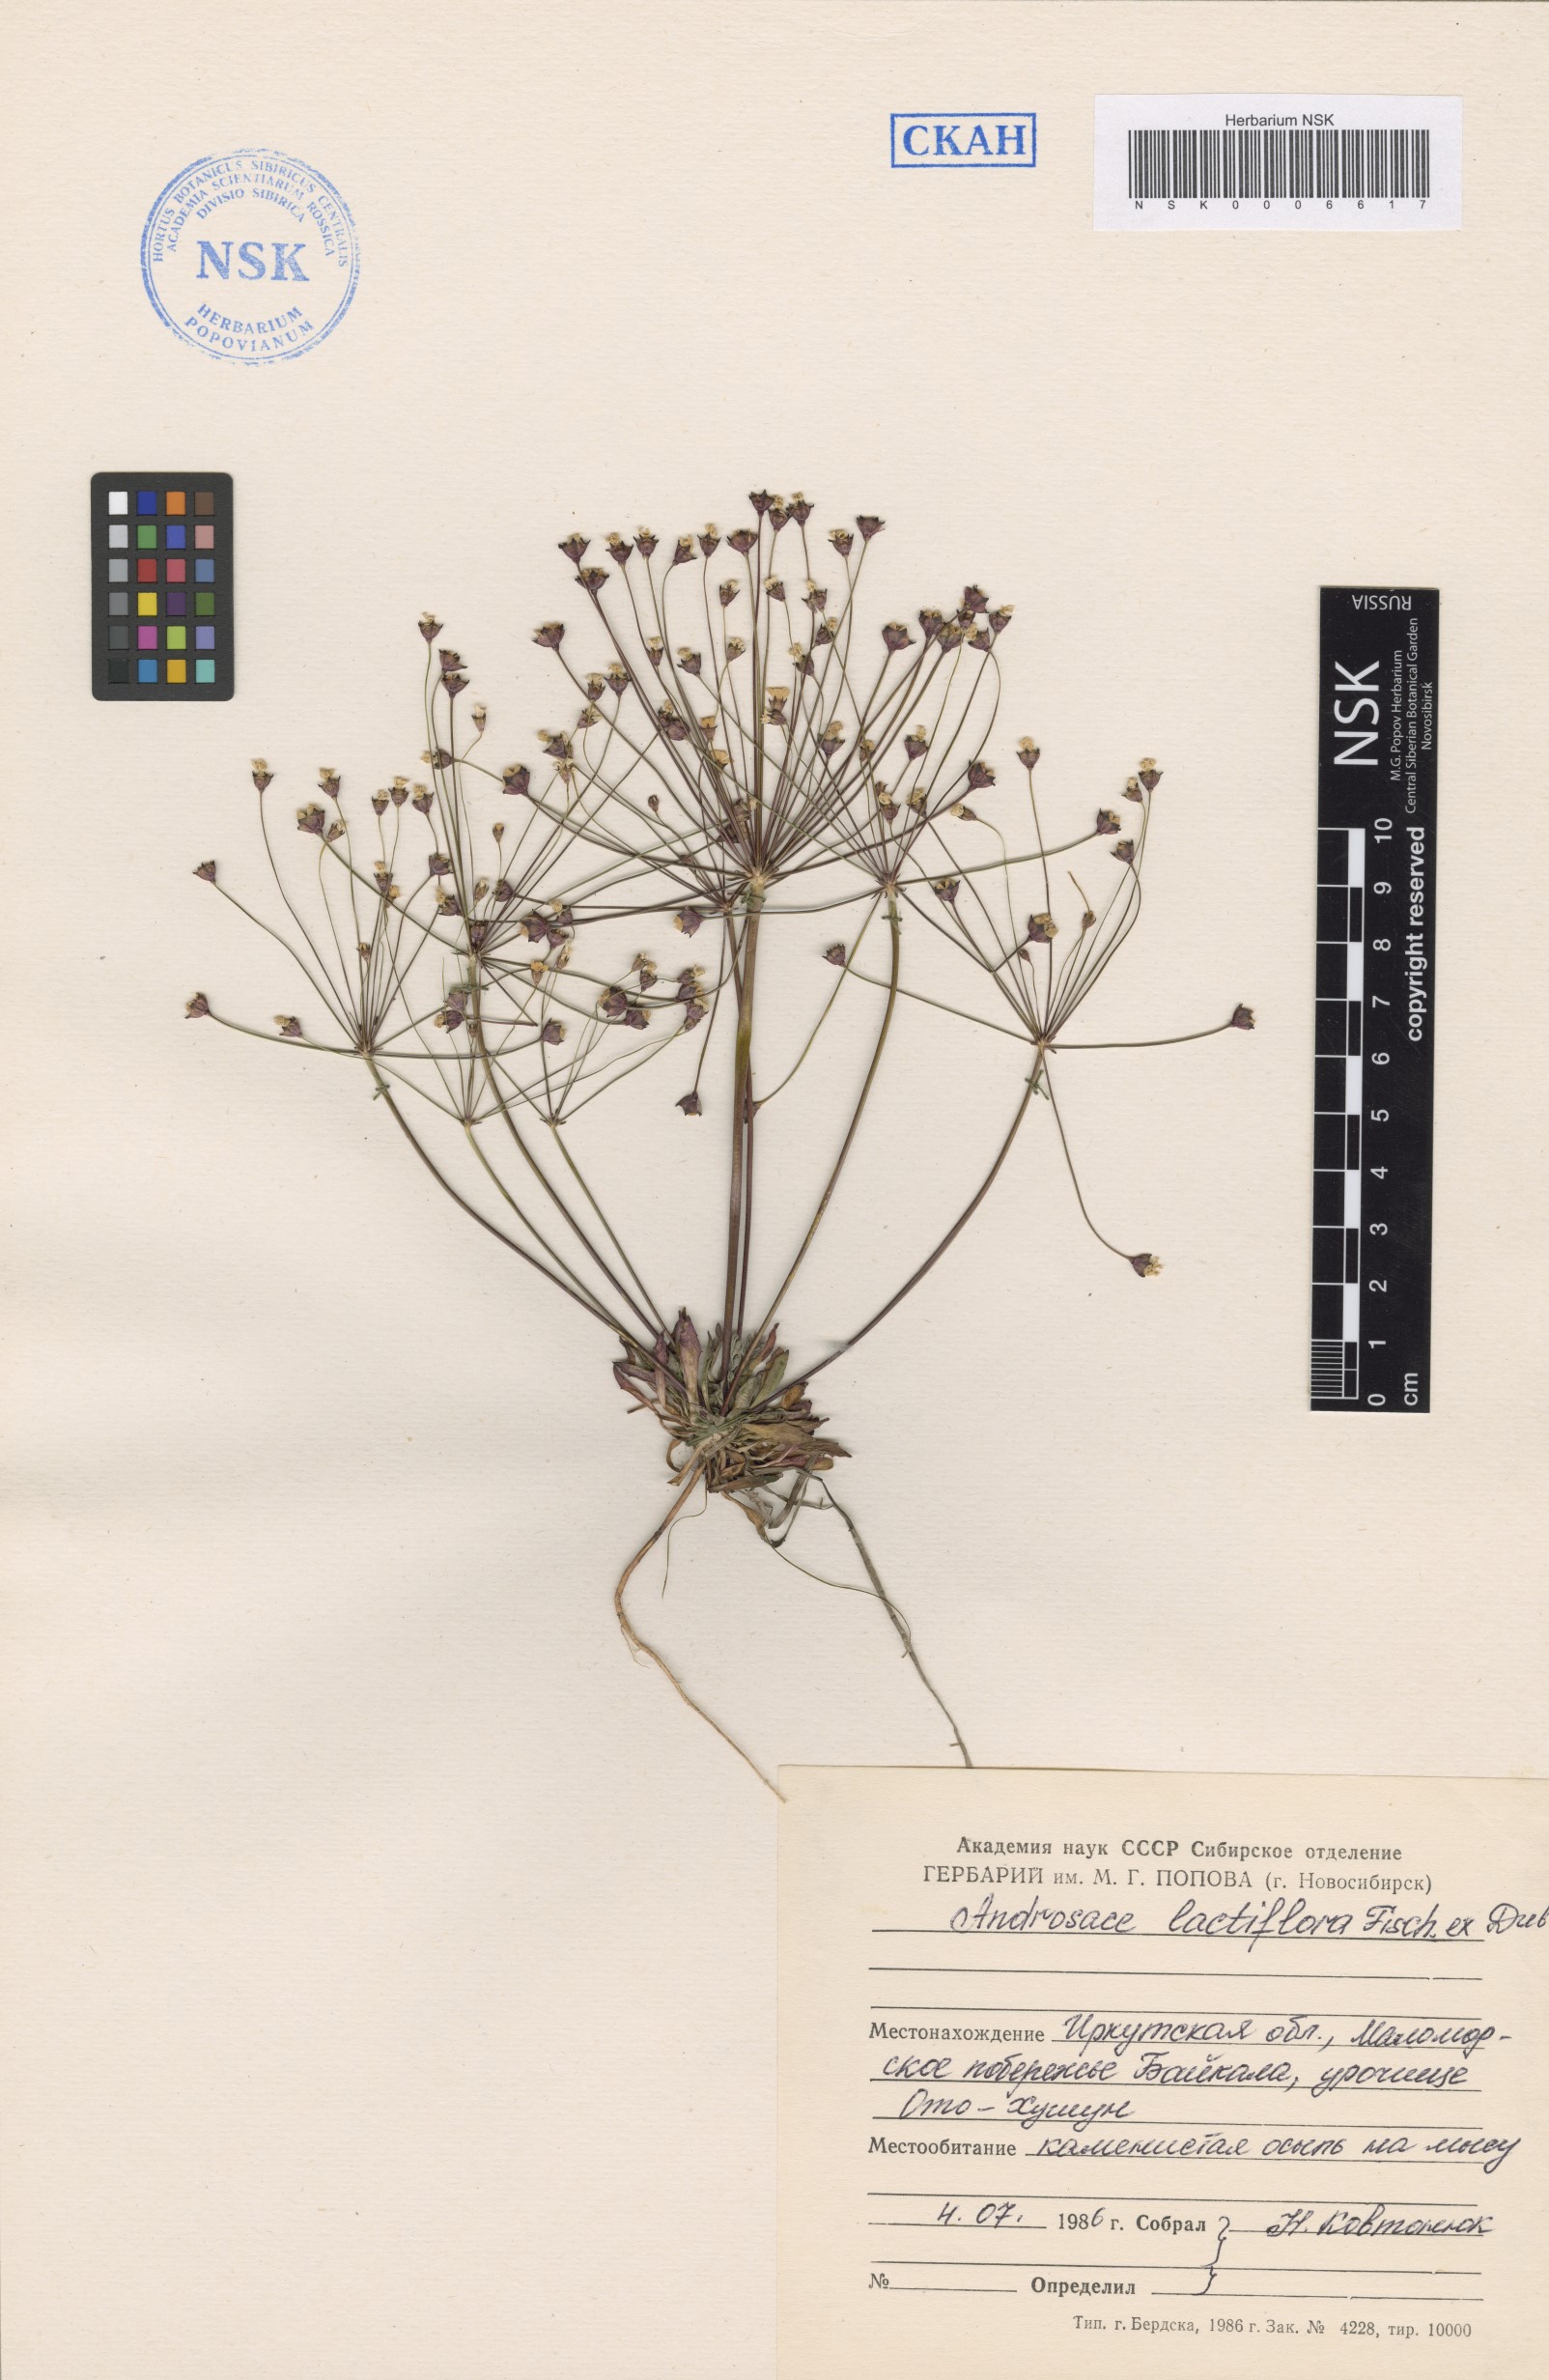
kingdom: Plantae
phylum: Tracheophyta
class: Magnoliopsida
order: Ericales
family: Primulaceae
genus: Androsace
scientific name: Androsace lactiflora
